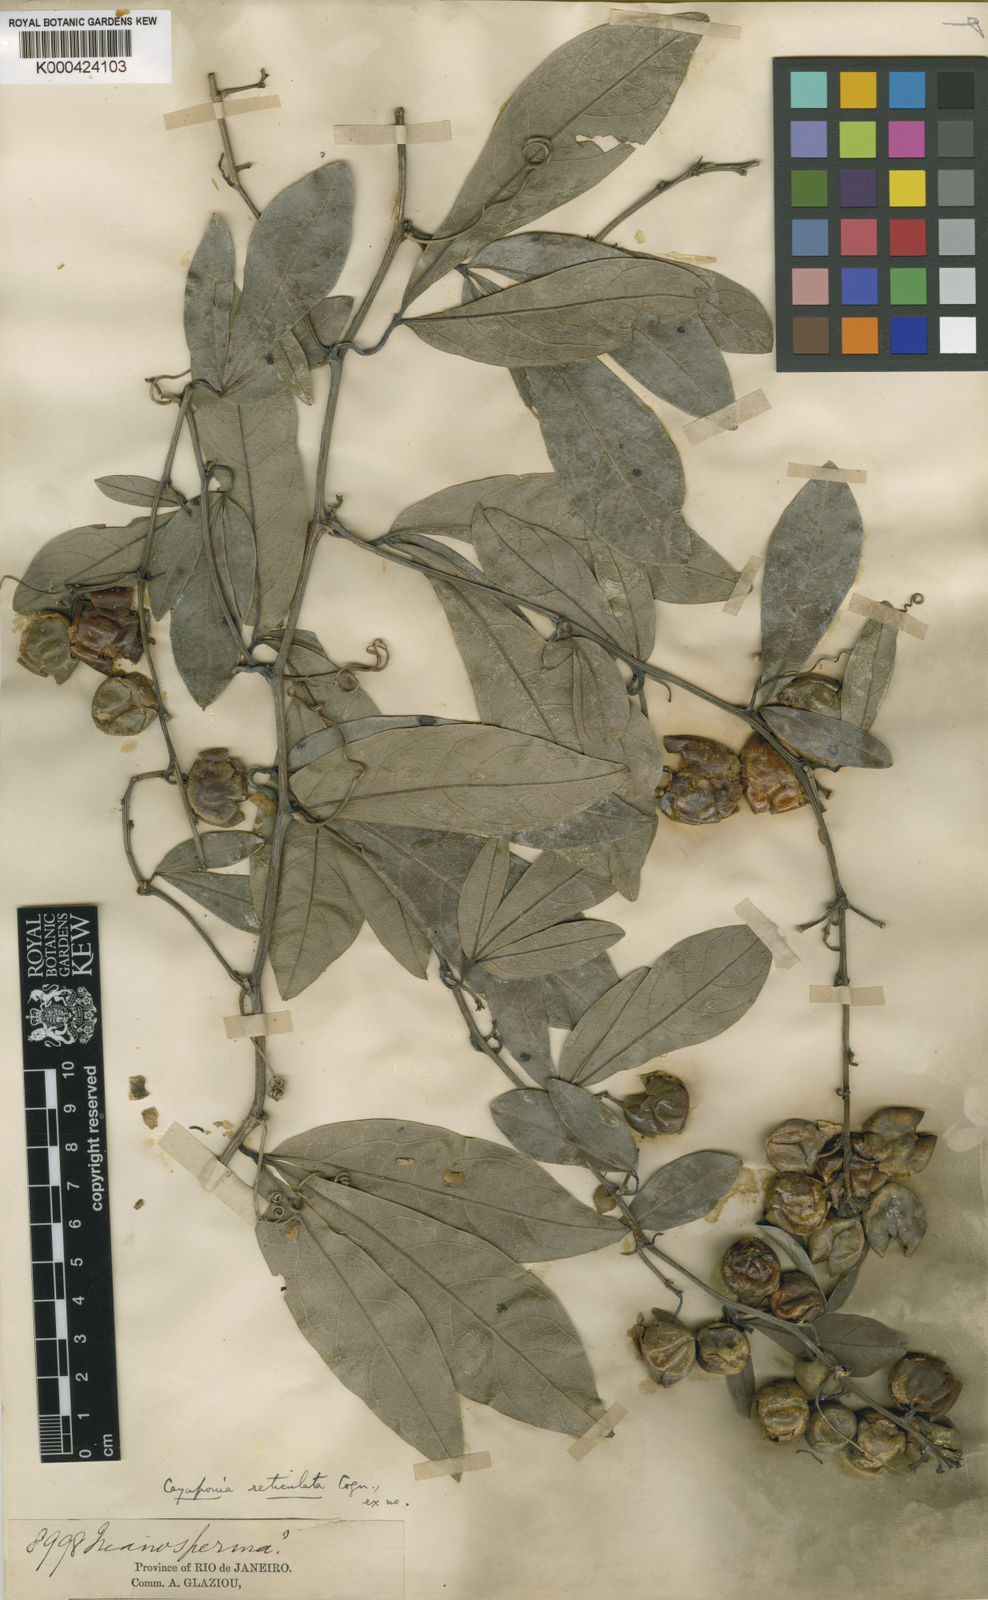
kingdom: Plantae
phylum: Tracheophyta
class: Magnoliopsida
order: Cucurbitales
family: Cucurbitaceae
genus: Cayaponia
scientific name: Cayaponia longifolia
